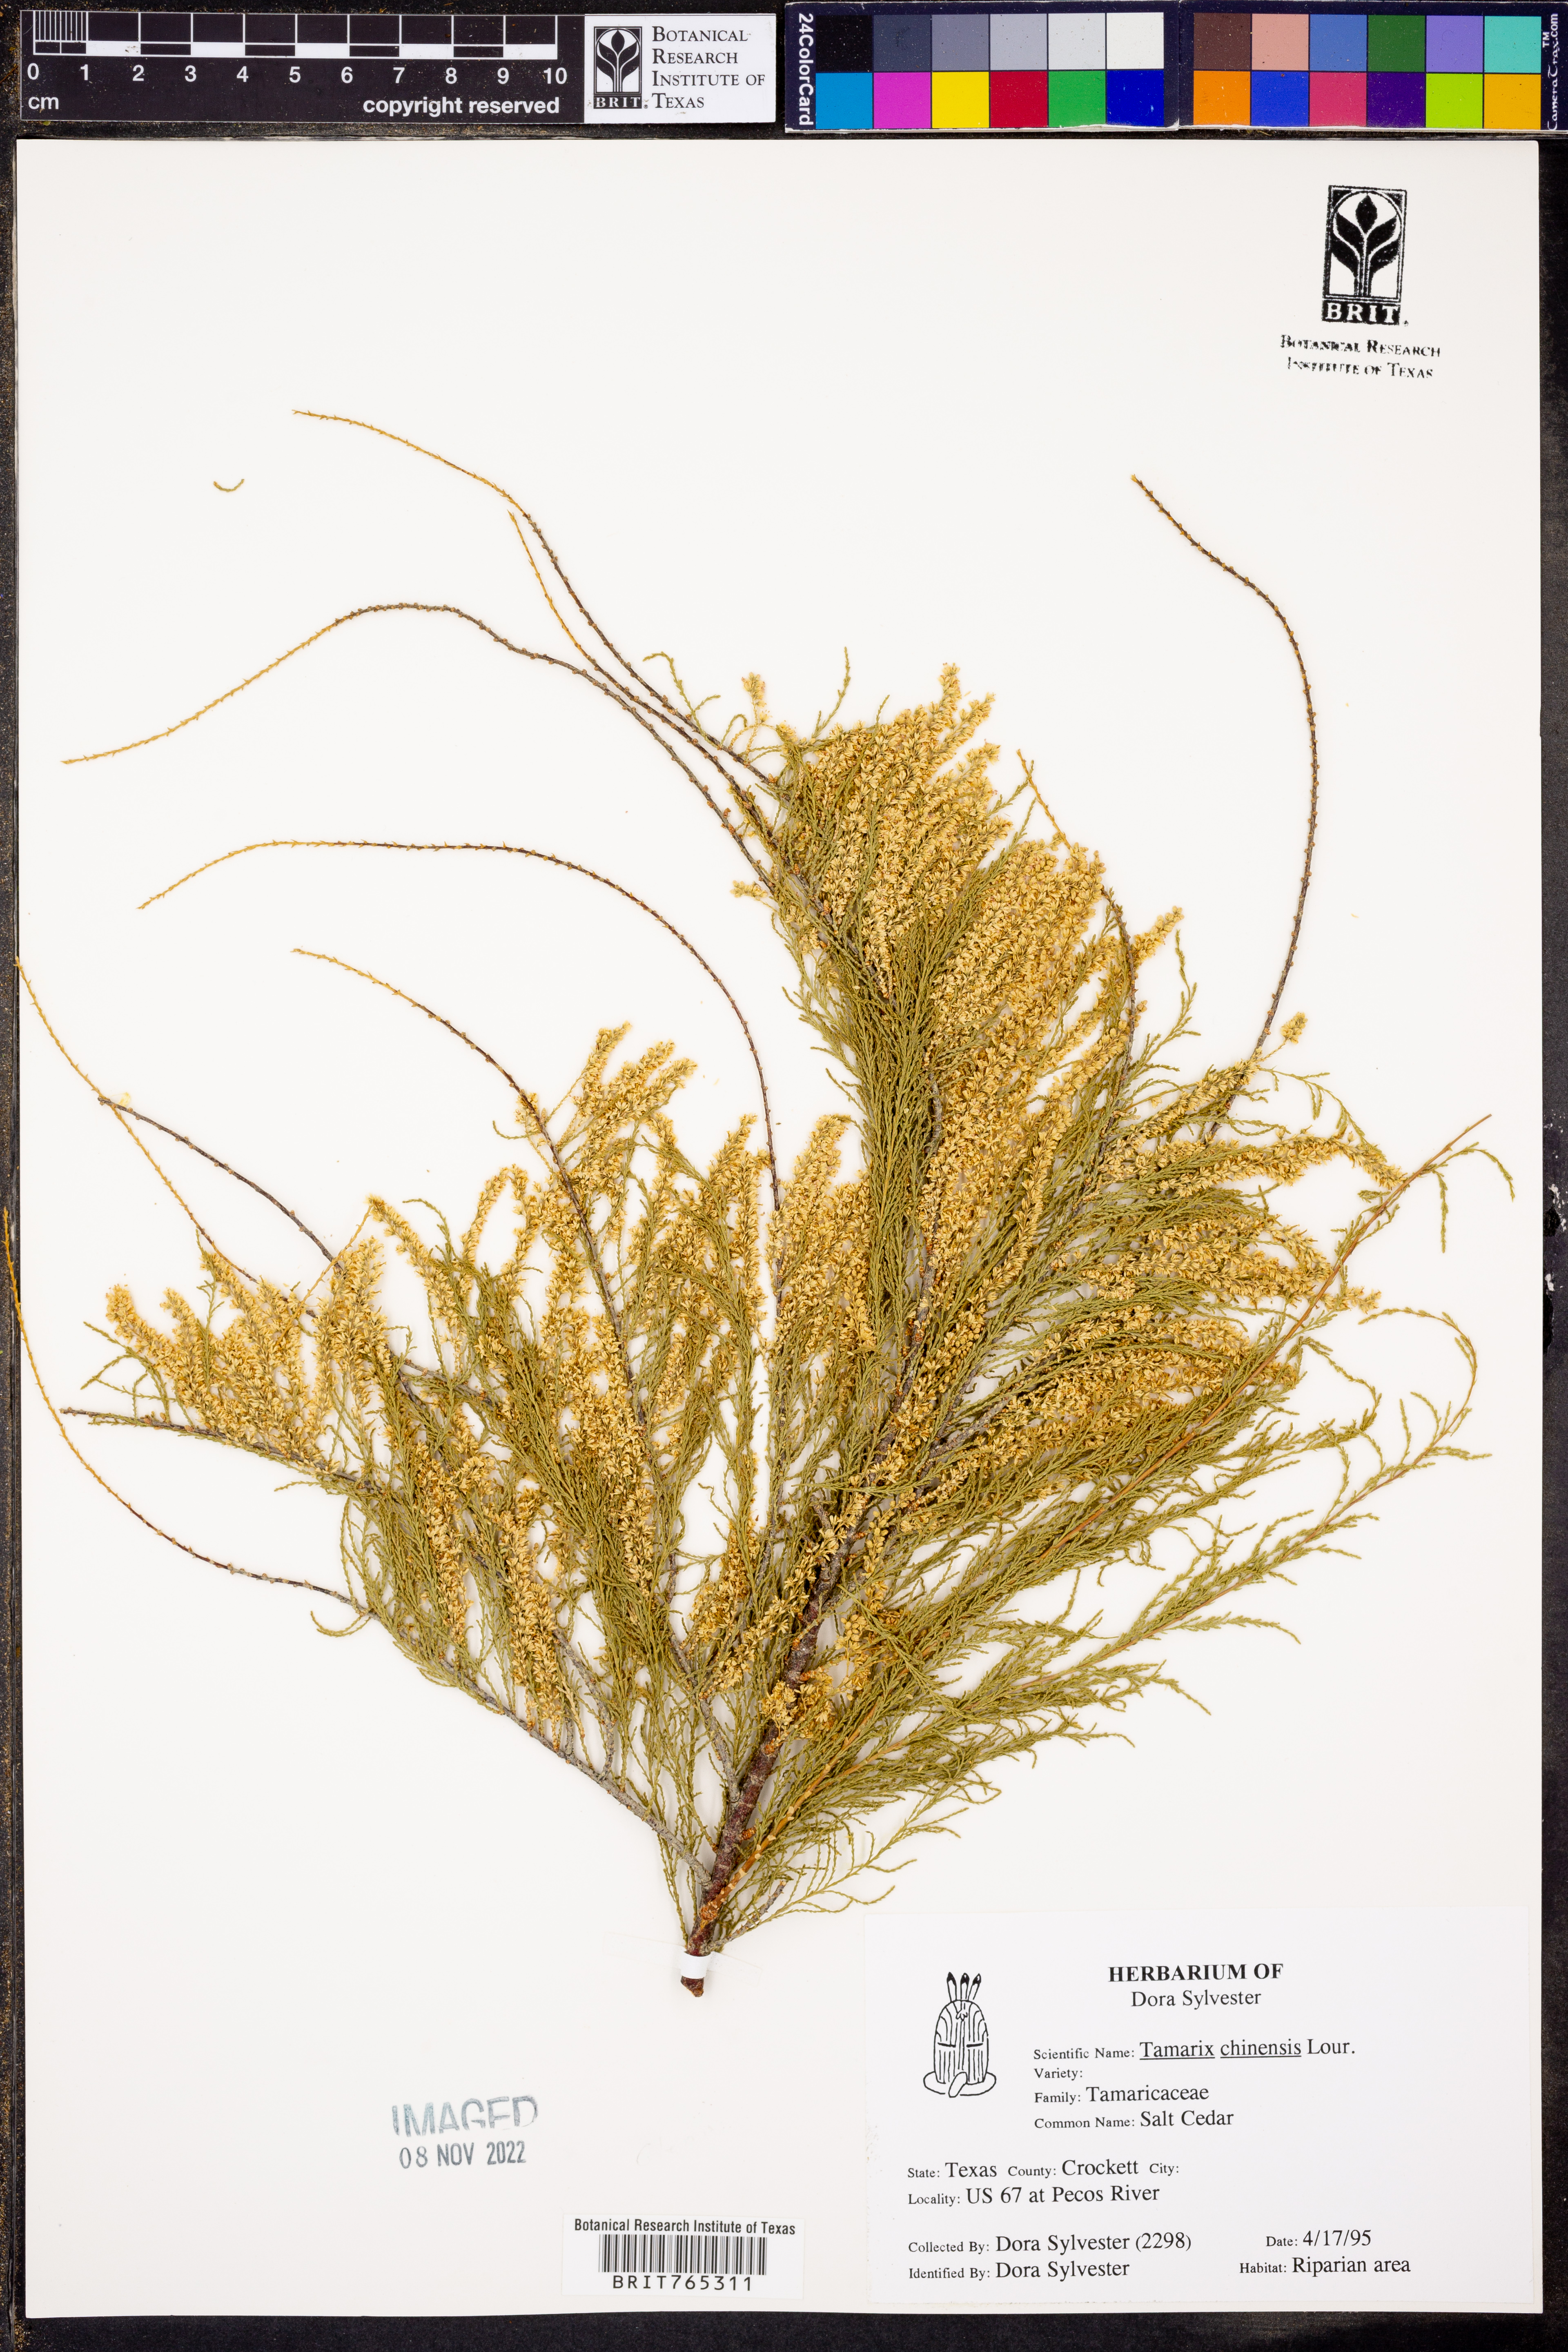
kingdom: Plantae
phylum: Tracheophyta
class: Magnoliopsida
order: Caryophyllales
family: Tamaricaceae
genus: Tamarix
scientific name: Tamarix chinensis
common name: Chinese tamarisk
